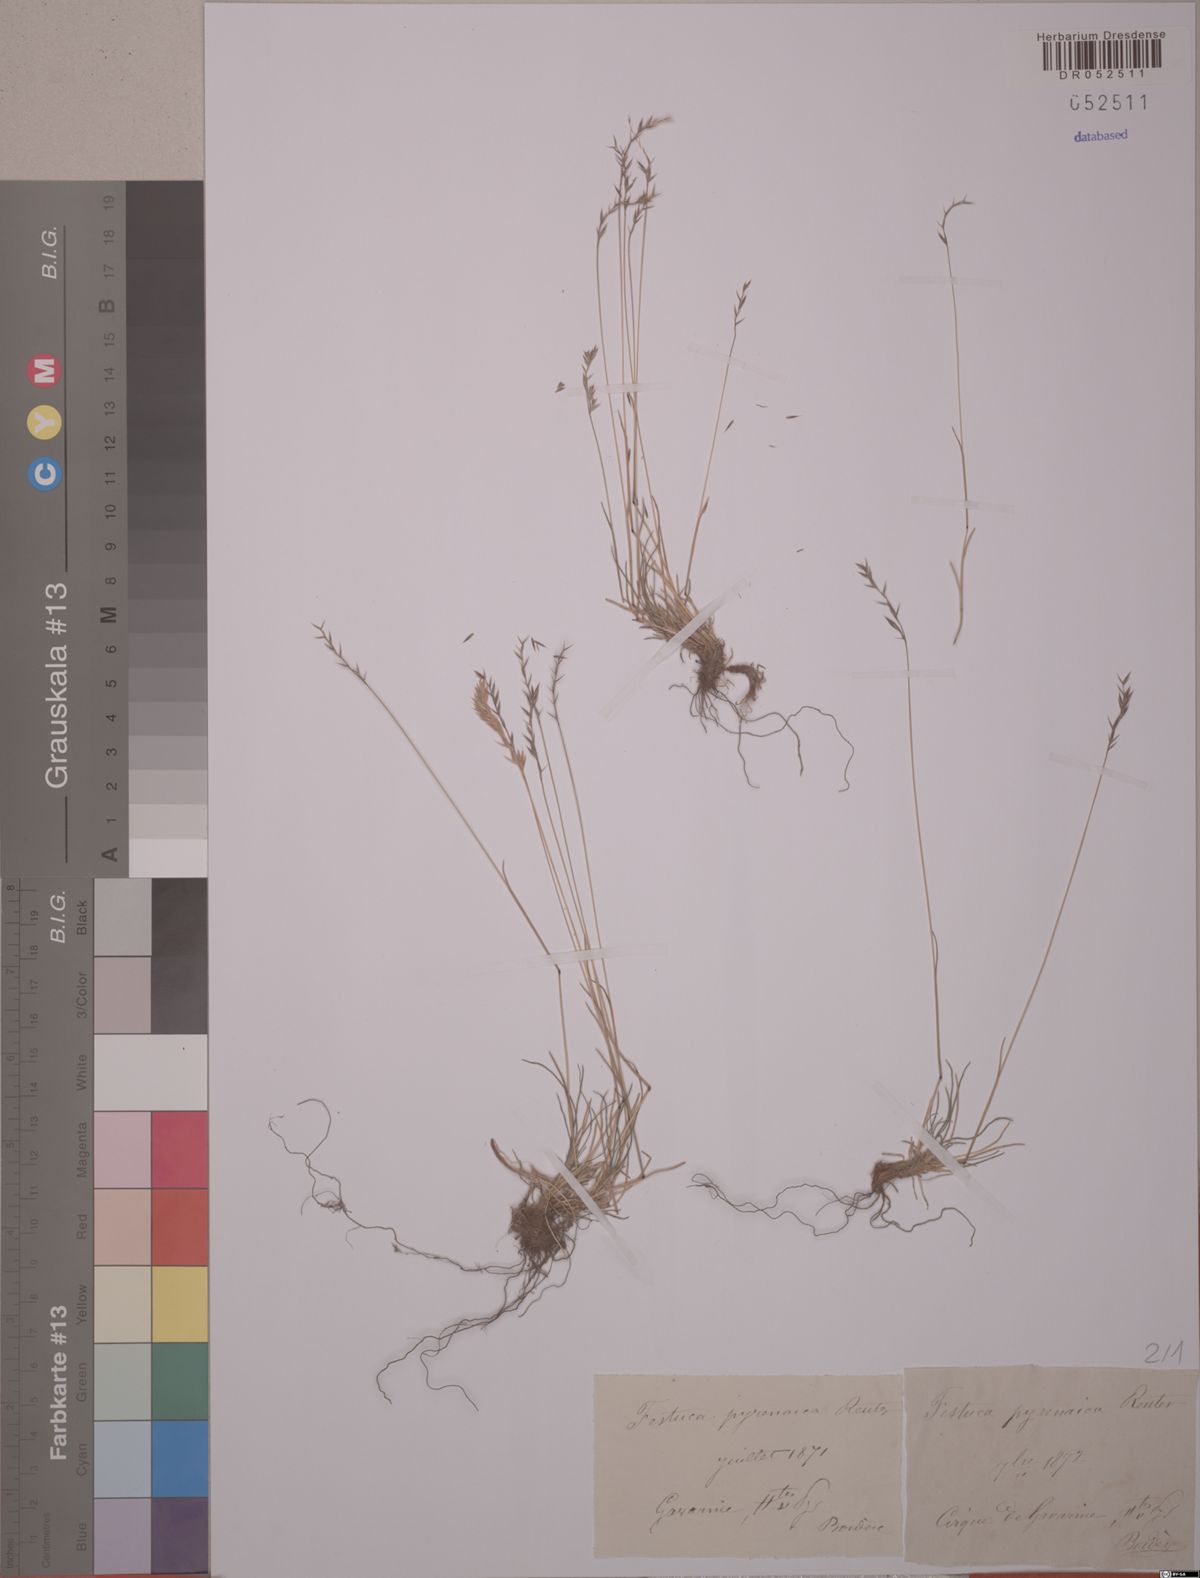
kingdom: Plantae
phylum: Tracheophyta
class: Liliopsida
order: Poales
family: Poaceae
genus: Festuca
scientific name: Festuca pyrenaica
